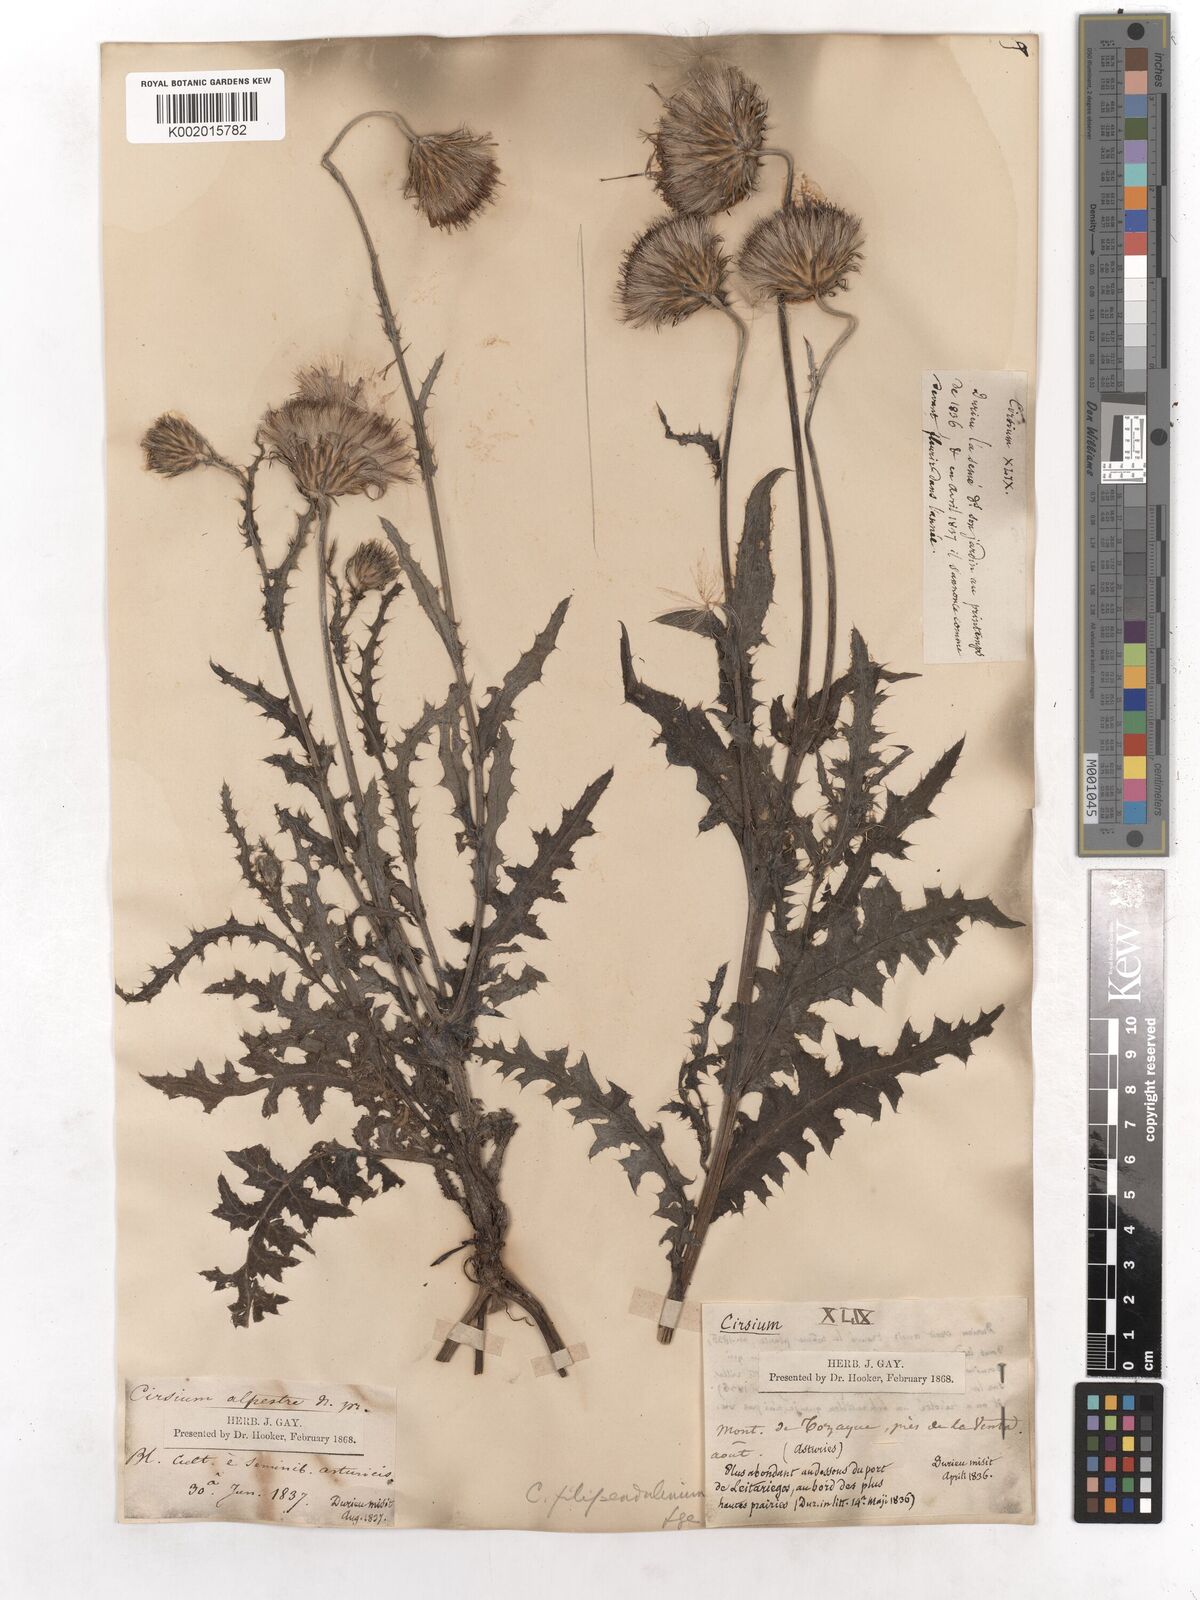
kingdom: Plantae
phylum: Tracheophyta
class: Magnoliopsida
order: Asterales
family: Asteraceae
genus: Cirsium
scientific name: Cirsium filipendulum
